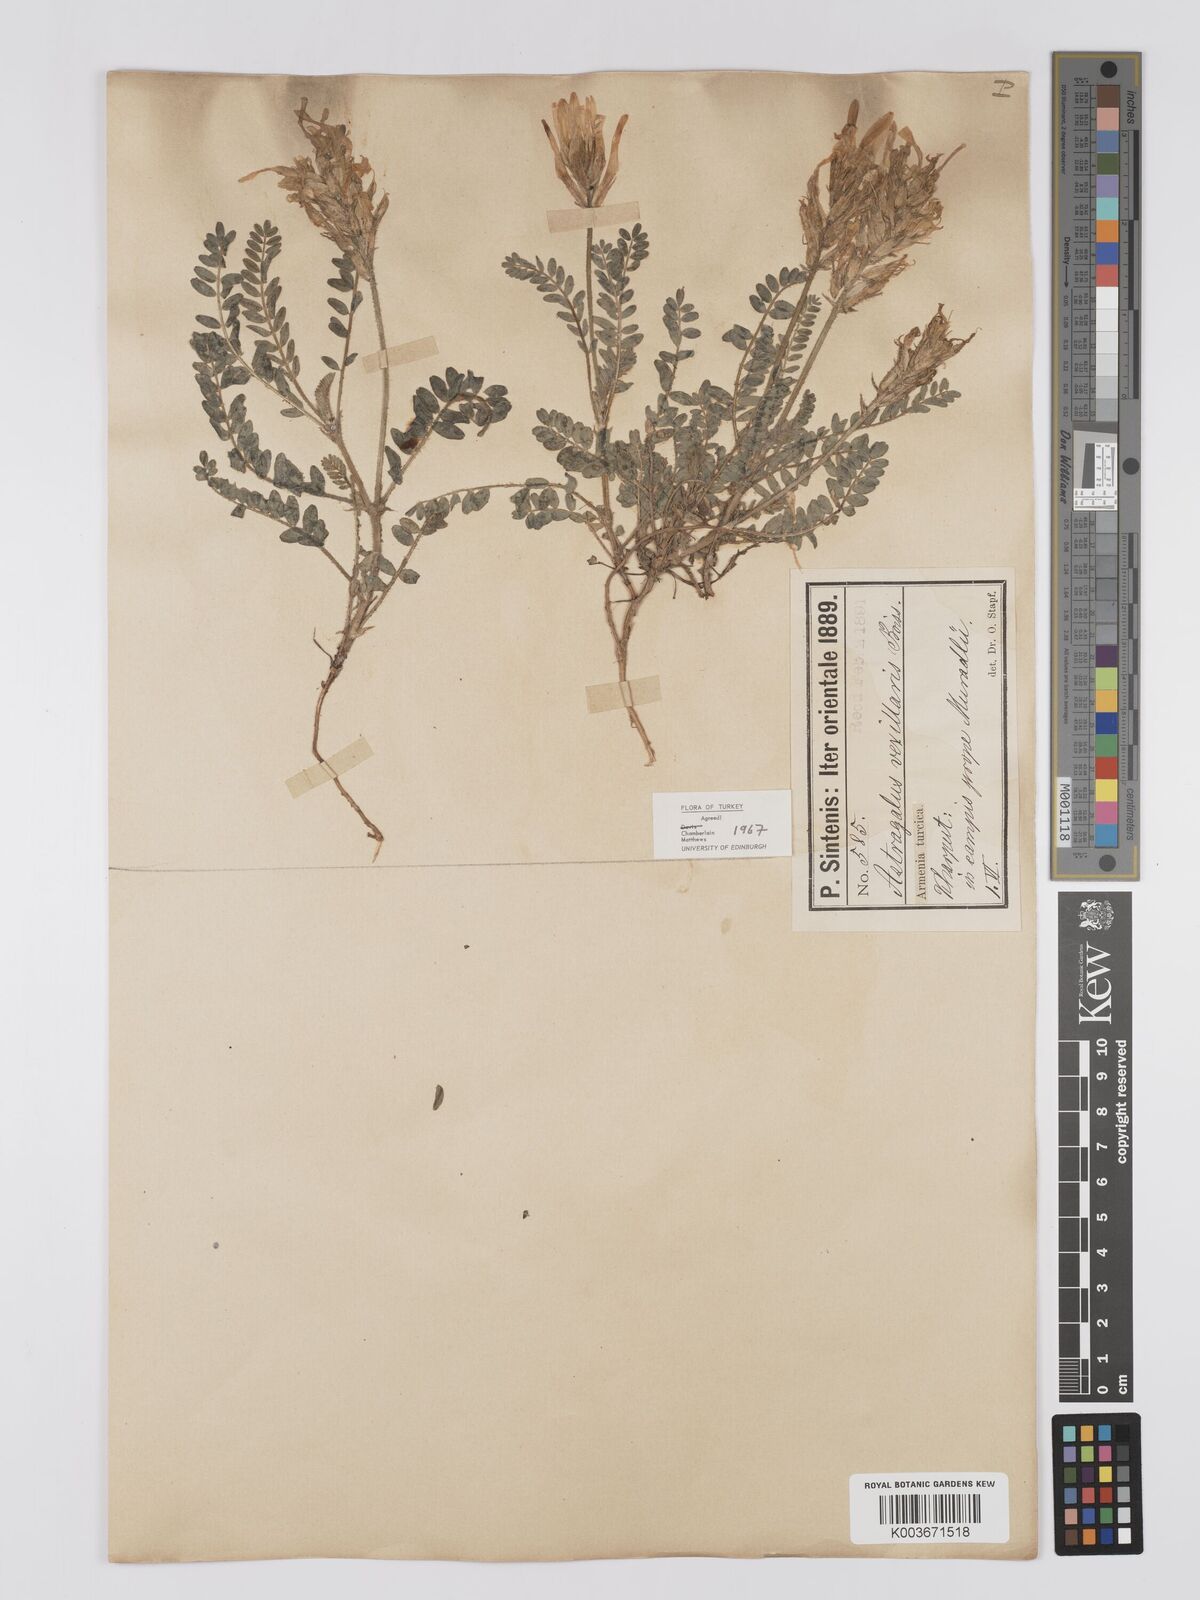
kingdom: Plantae
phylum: Tracheophyta
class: Magnoliopsida
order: Fabales
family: Fabaceae
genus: Astragalus
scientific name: Astragalus vexillaris
